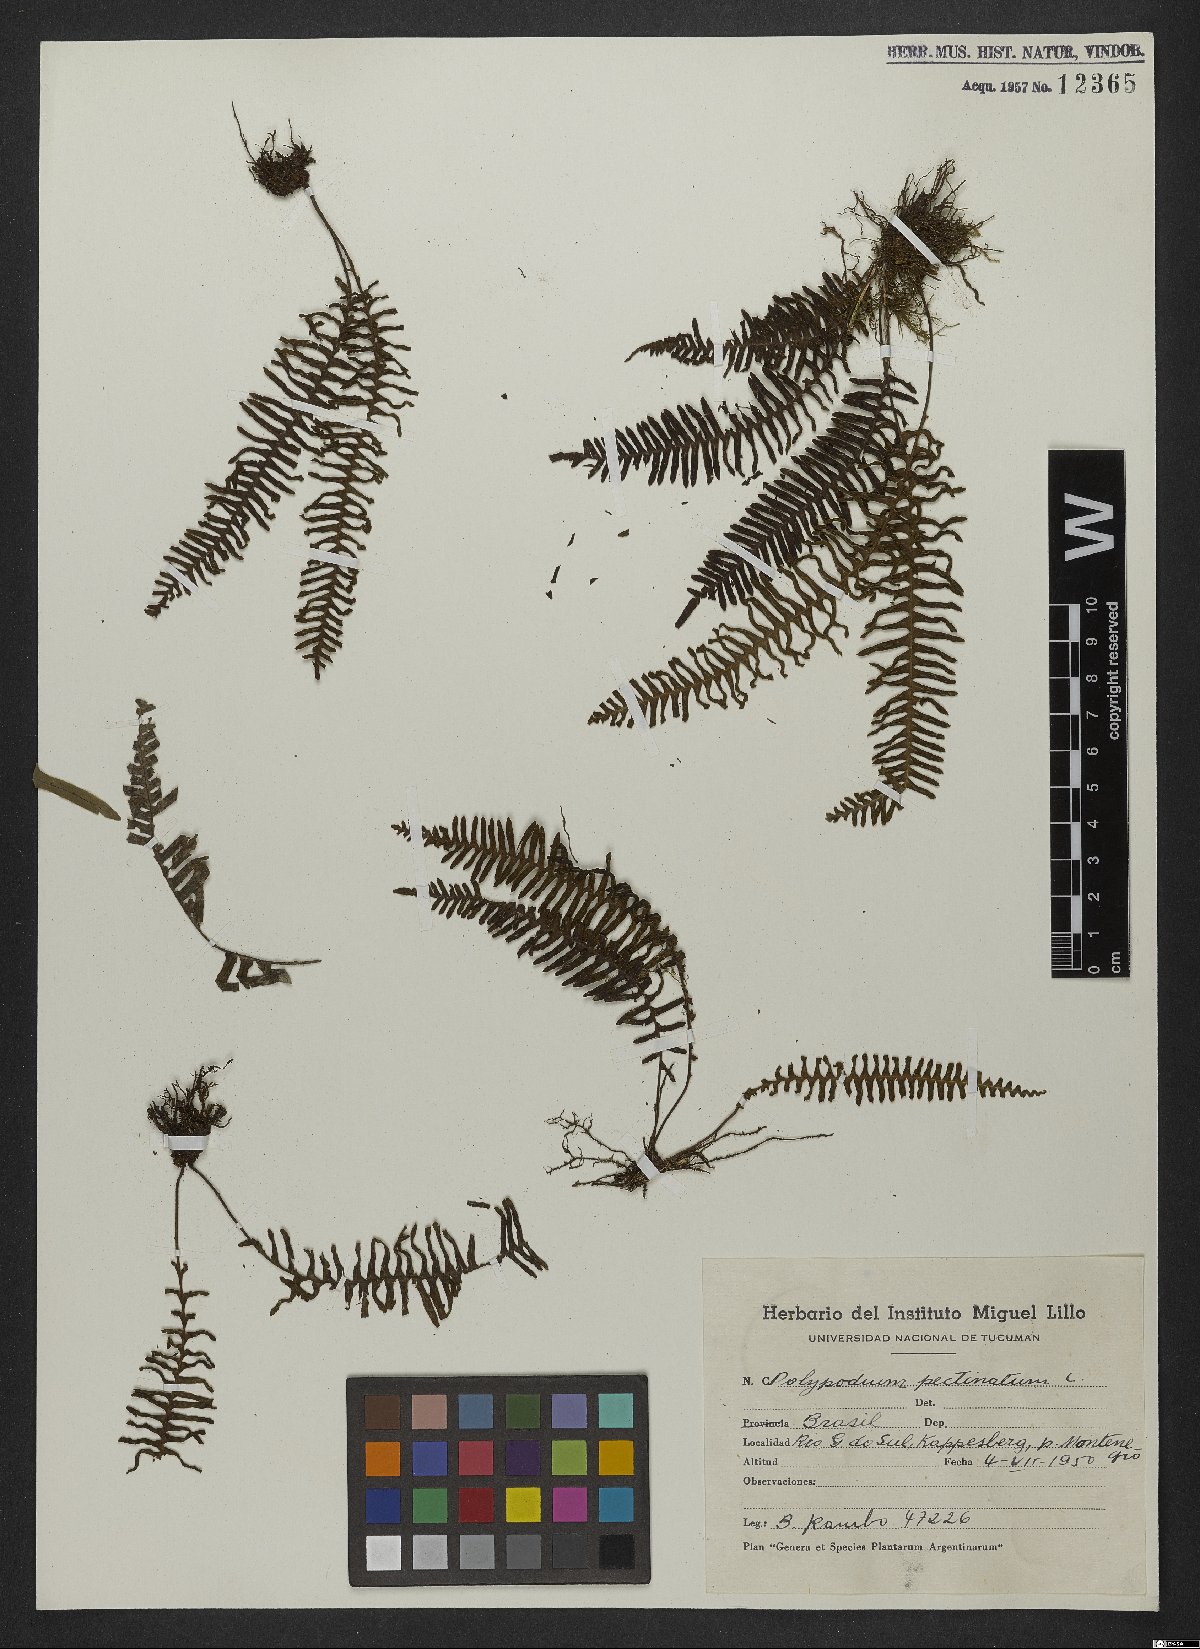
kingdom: Plantae
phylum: Tracheophyta
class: Polypodiopsida
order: Polypodiales
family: Polypodiaceae
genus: Pecluma
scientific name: Pecluma pectinata
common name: Msasa fern
